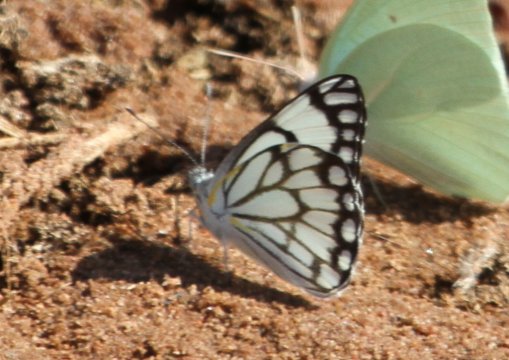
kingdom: Animalia
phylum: Arthropoda
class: Insecta
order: Lepidoptera
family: Pieridae
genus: Belenois
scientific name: Belenois aurota
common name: Pioneer White
